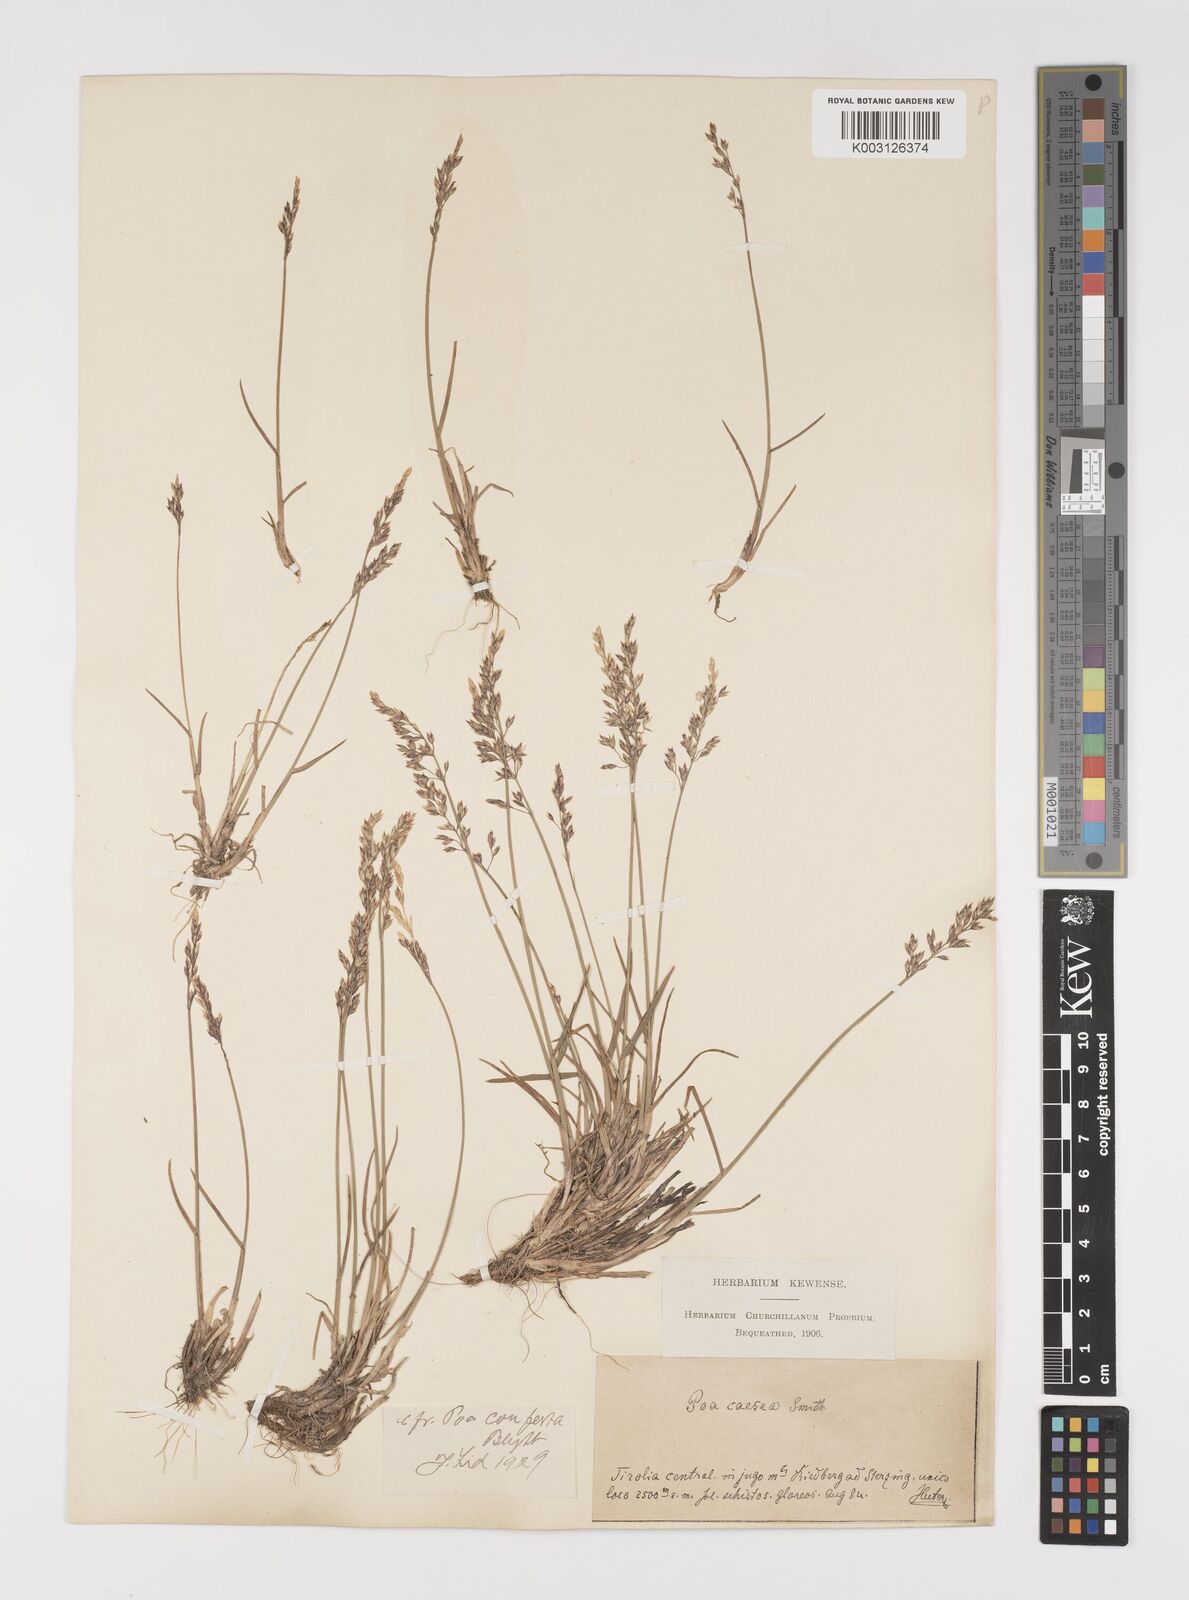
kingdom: Plantae
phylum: Tracheophyta
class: Liliopsida
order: Poales
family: Poaceae
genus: Poa
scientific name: Poa glauca
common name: Glaucous bluegrass
